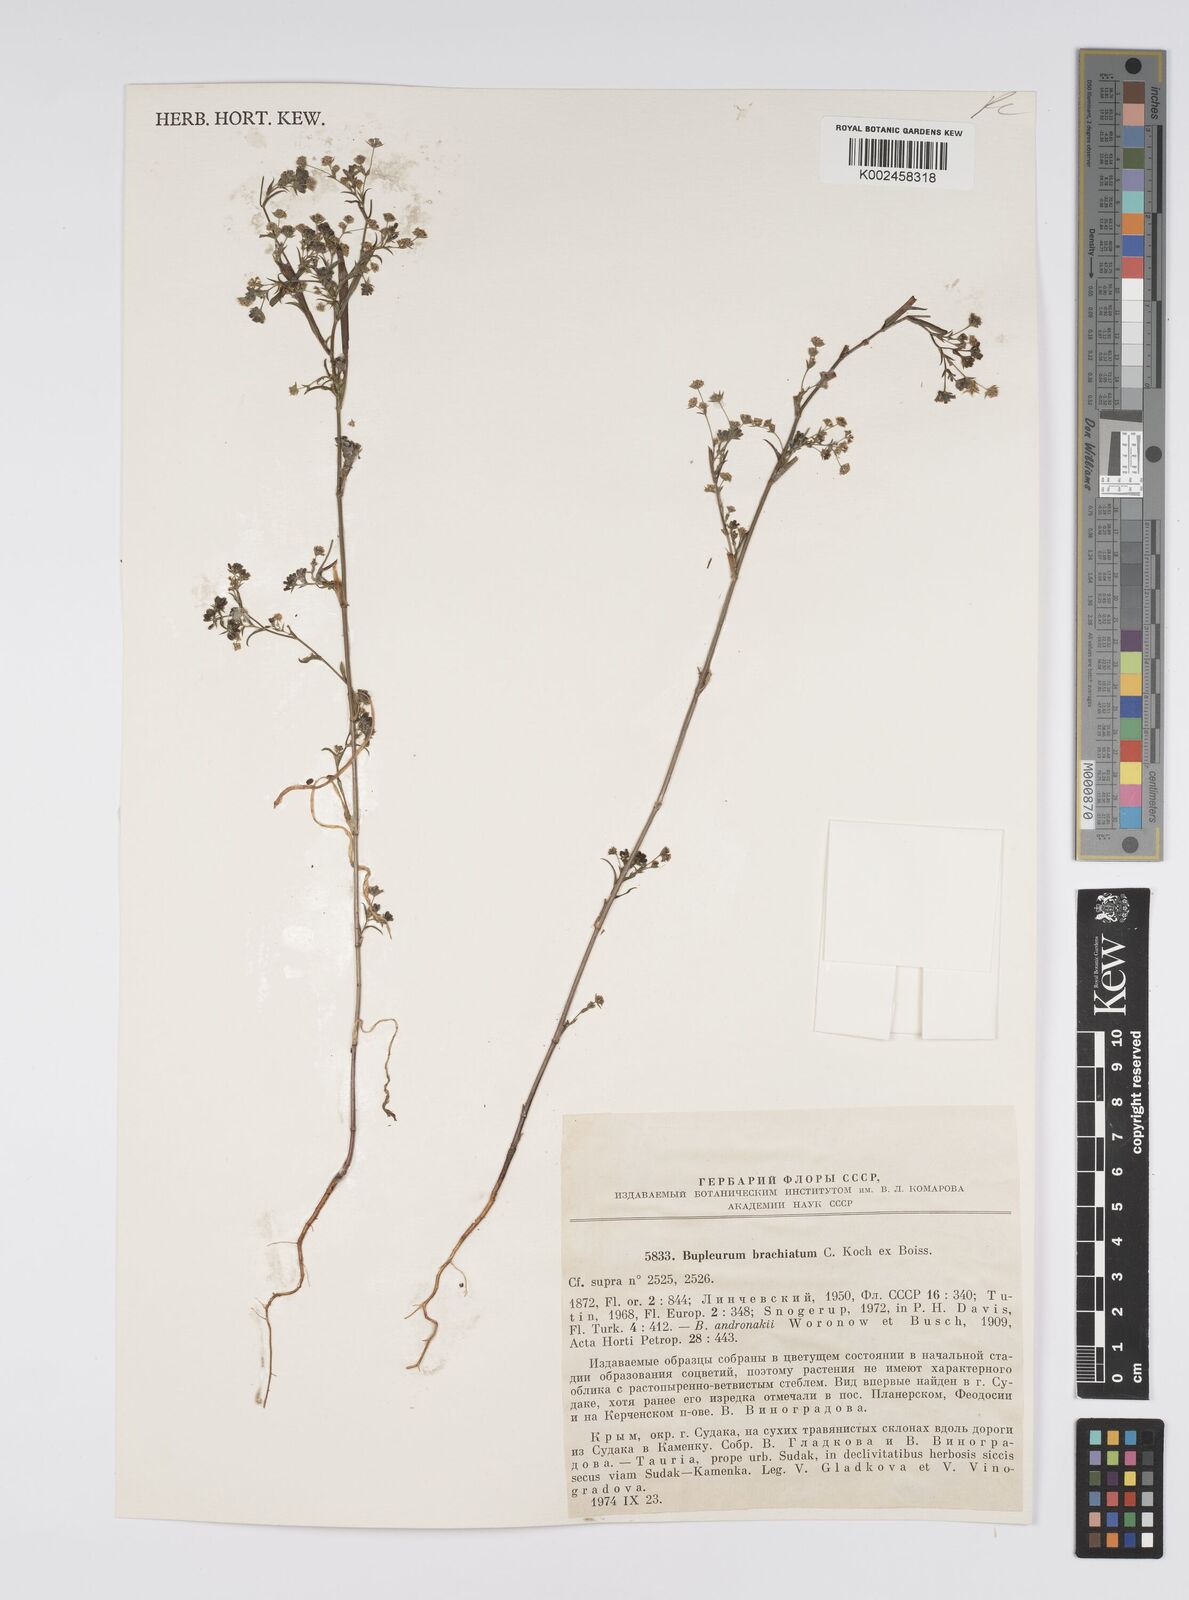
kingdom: Plantae
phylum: Tracheophyta
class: Magnoliopsida
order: Apiales
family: Apiaceae
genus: Bupleurum
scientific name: Bupleurum brachiatum
